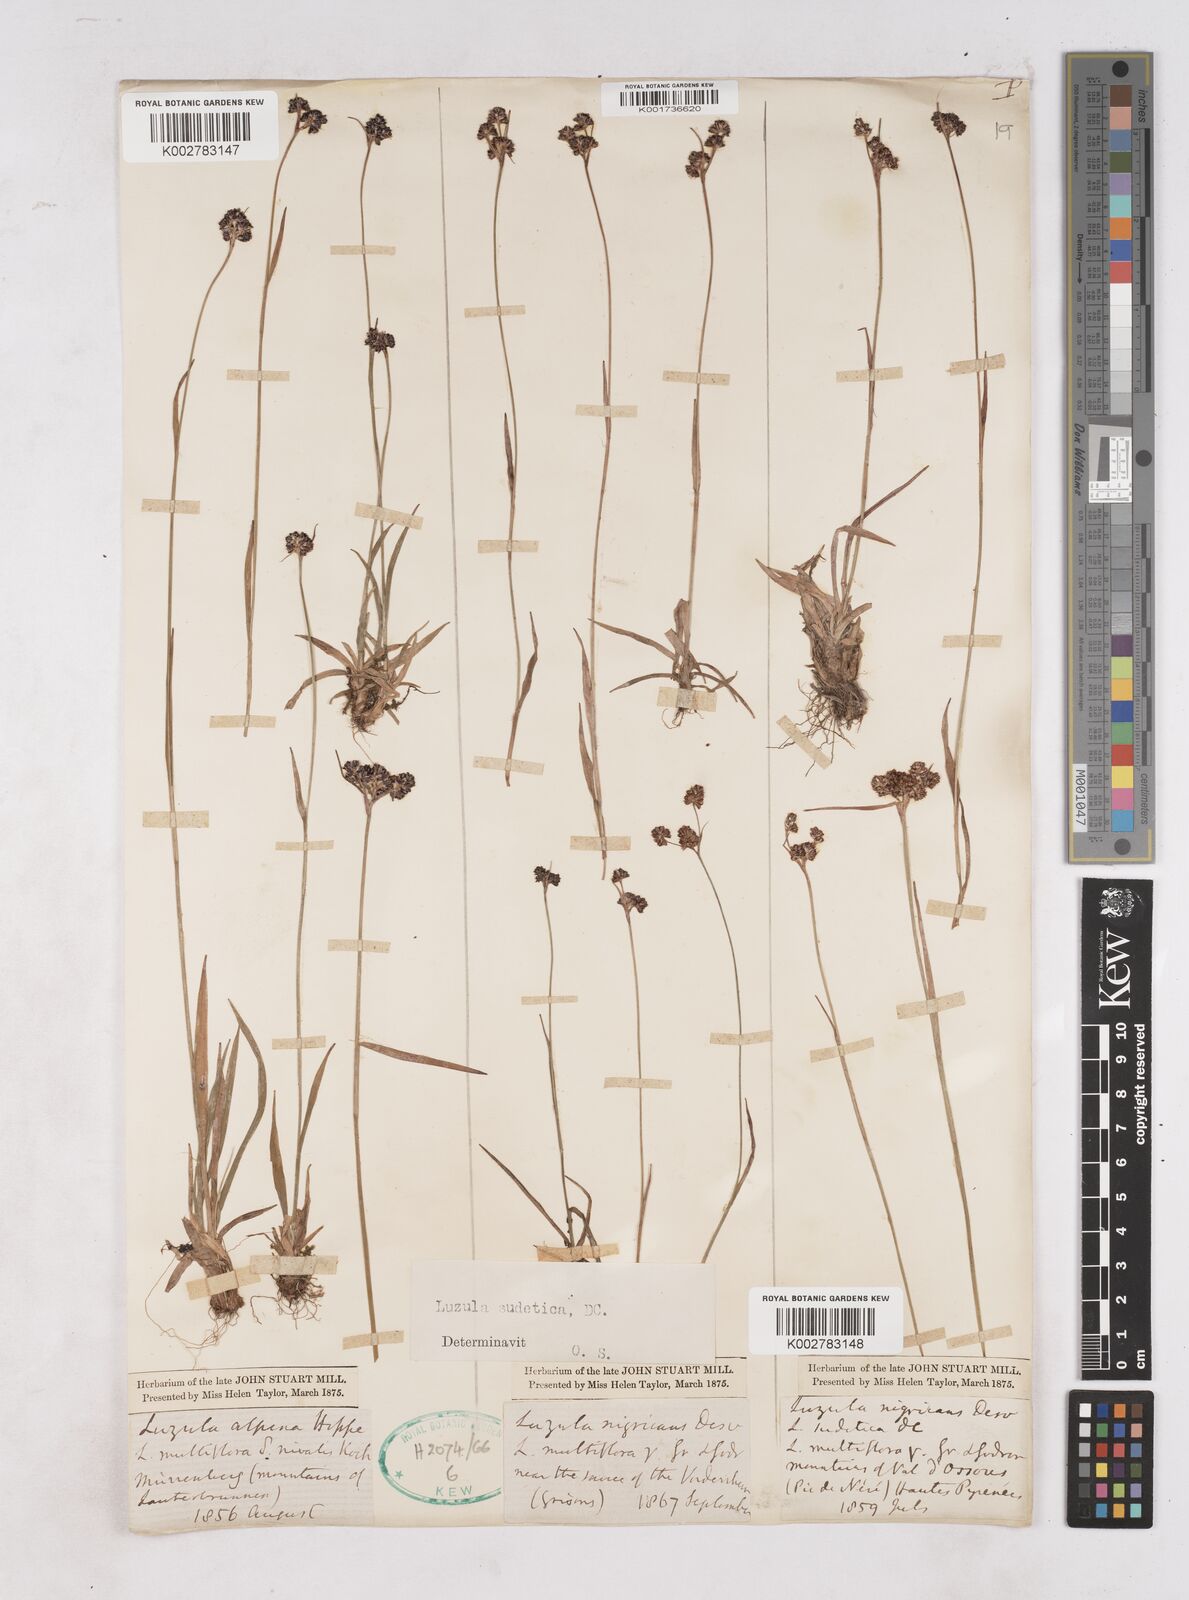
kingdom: Plantae
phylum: Tracheophyta
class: Liliopsida
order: Poales
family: Juncaceae
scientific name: Juncaceae
